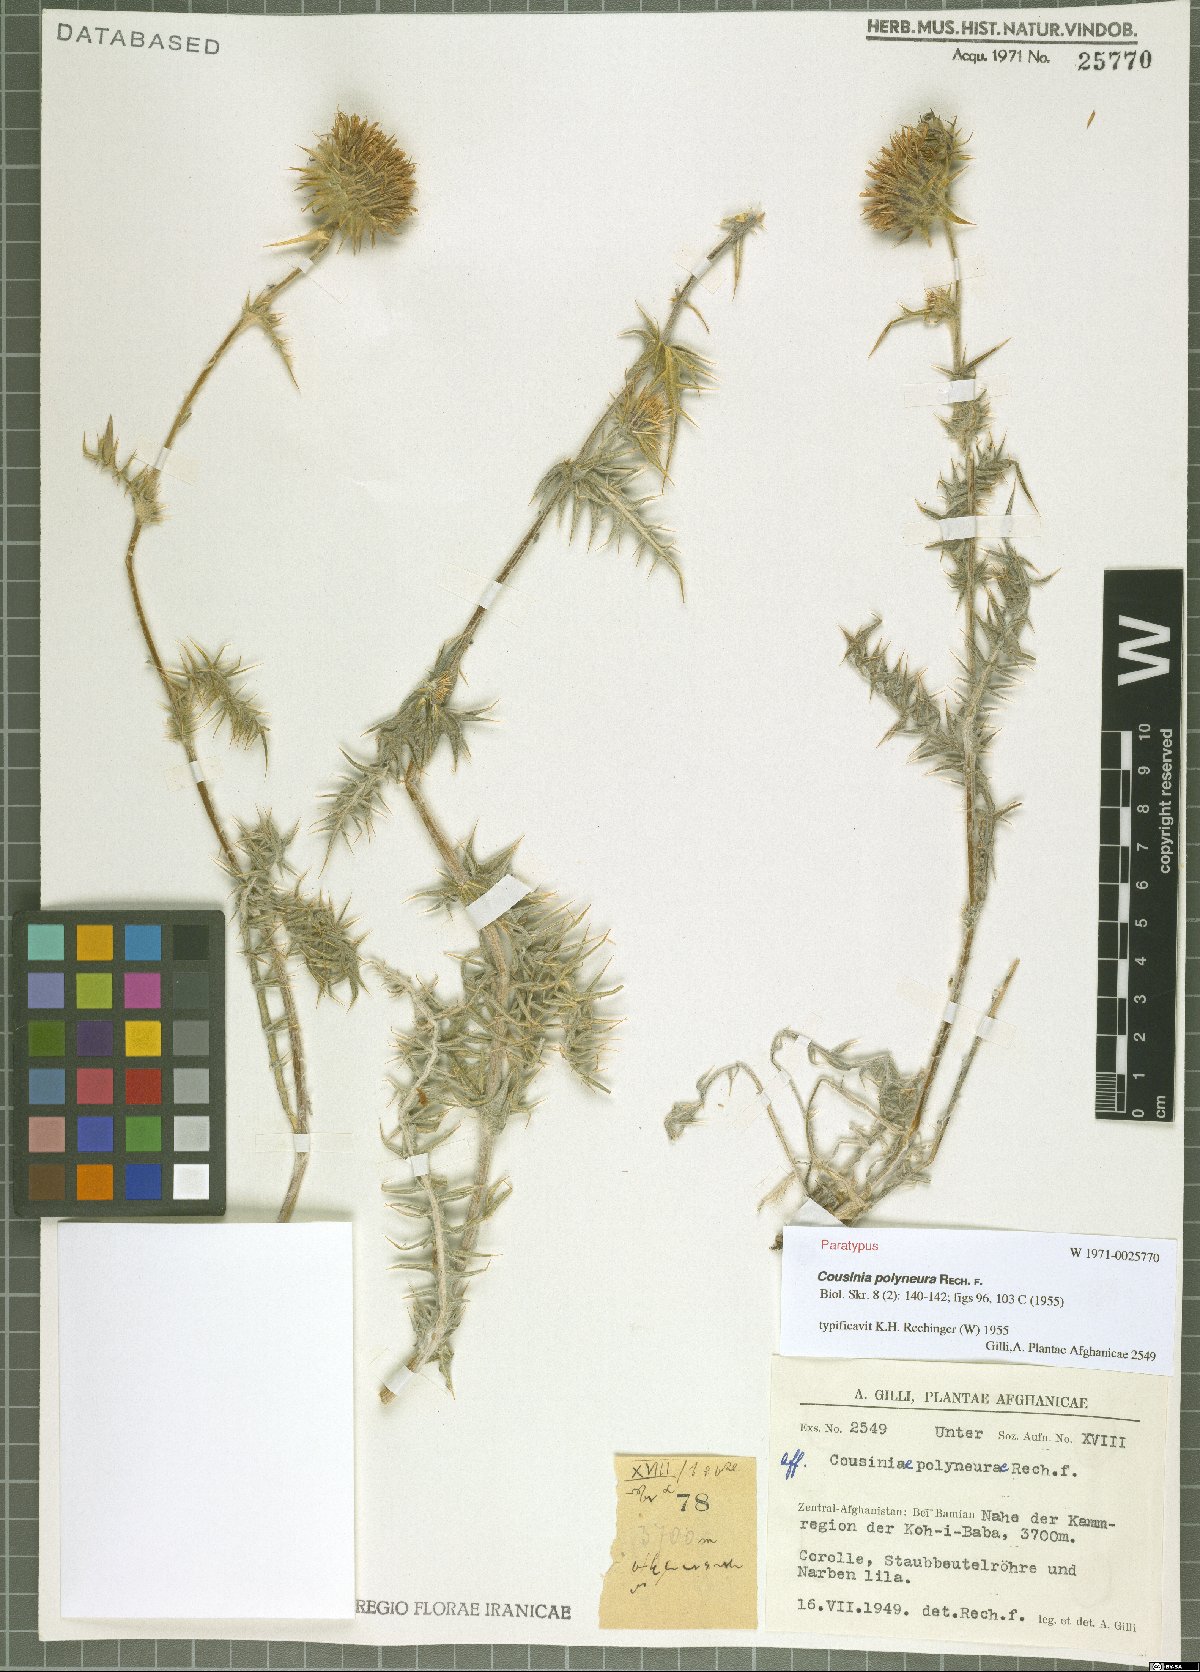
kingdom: Plantae
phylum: Tracheophyta
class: Magnoliopsida
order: Asterales
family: Asteraceae
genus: Cousinia
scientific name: Cousinia polyneura
